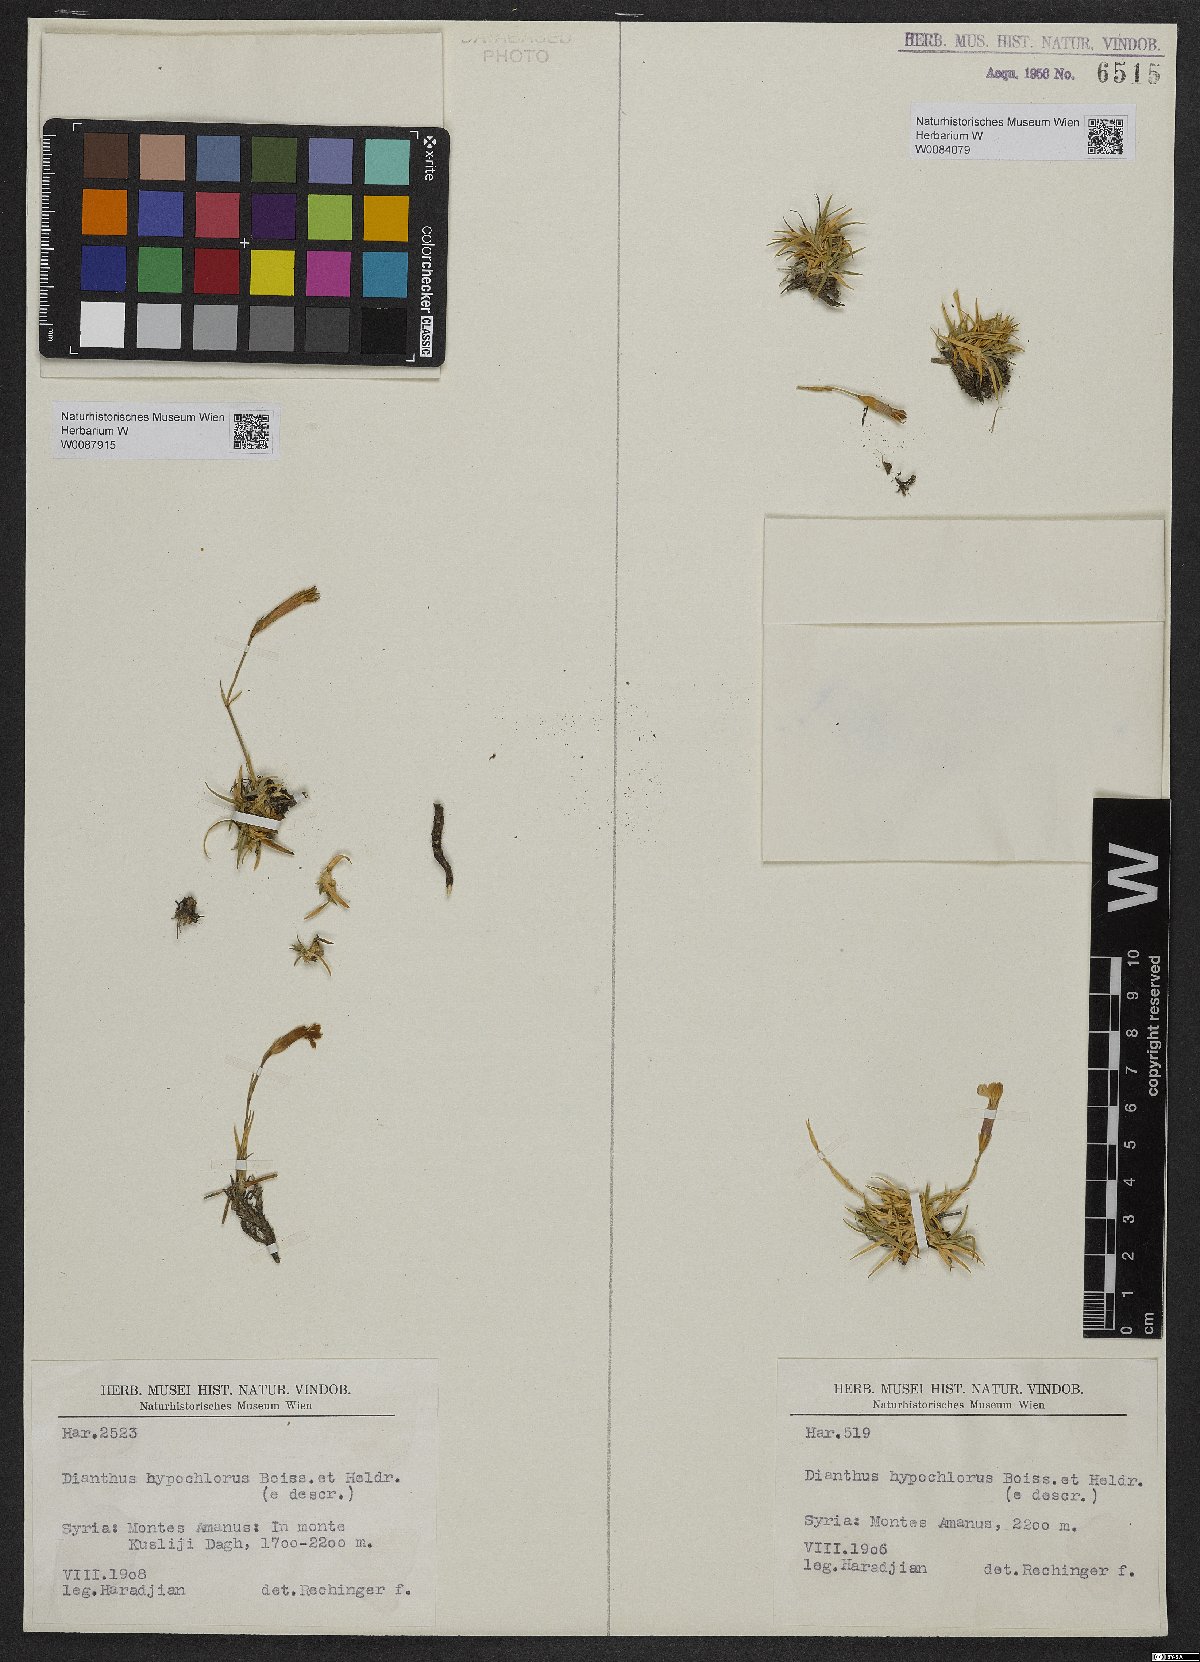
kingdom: Plantae
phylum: Tracheophyta
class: Magnoliopsida
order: Caryophyllales
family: Caryophyllaceae
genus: Dianthus
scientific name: Dianthus zonatus
